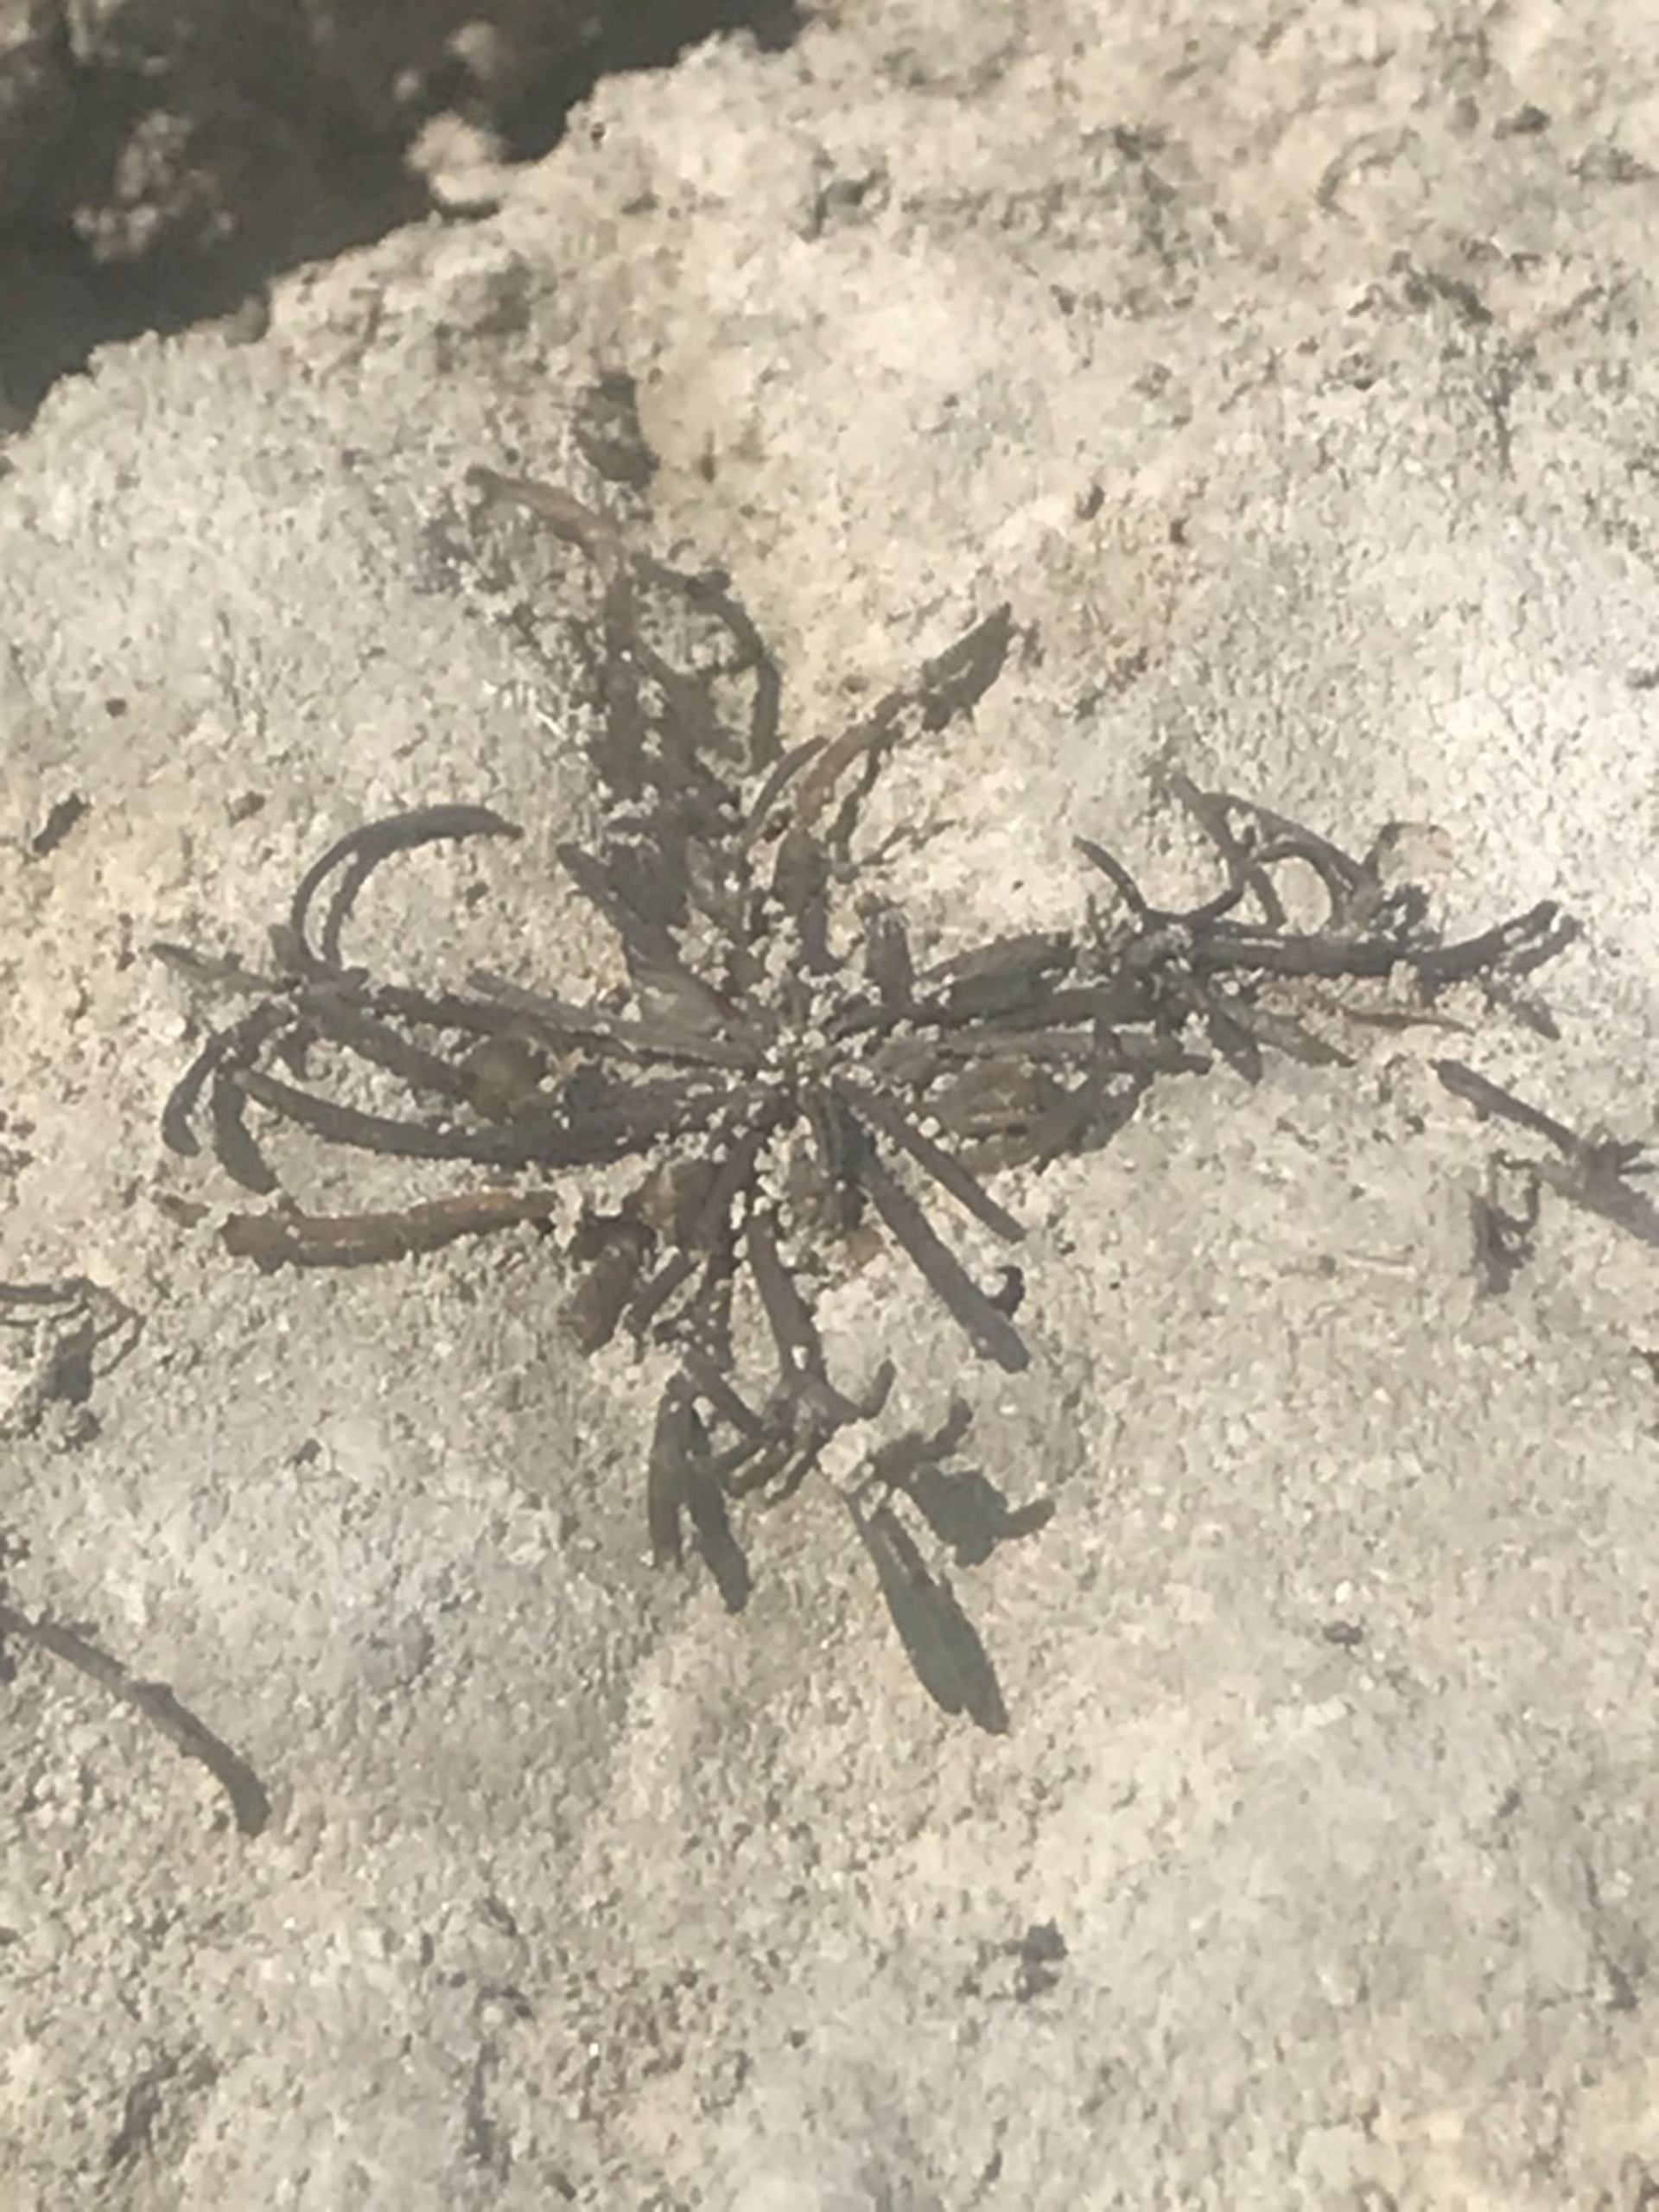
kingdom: Plantae
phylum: Tracheophyta
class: Magnoliopsida
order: Lamiales
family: Scrophulariaceae
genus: Limosella
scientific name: Limosella aquatica
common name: Dyndurt
